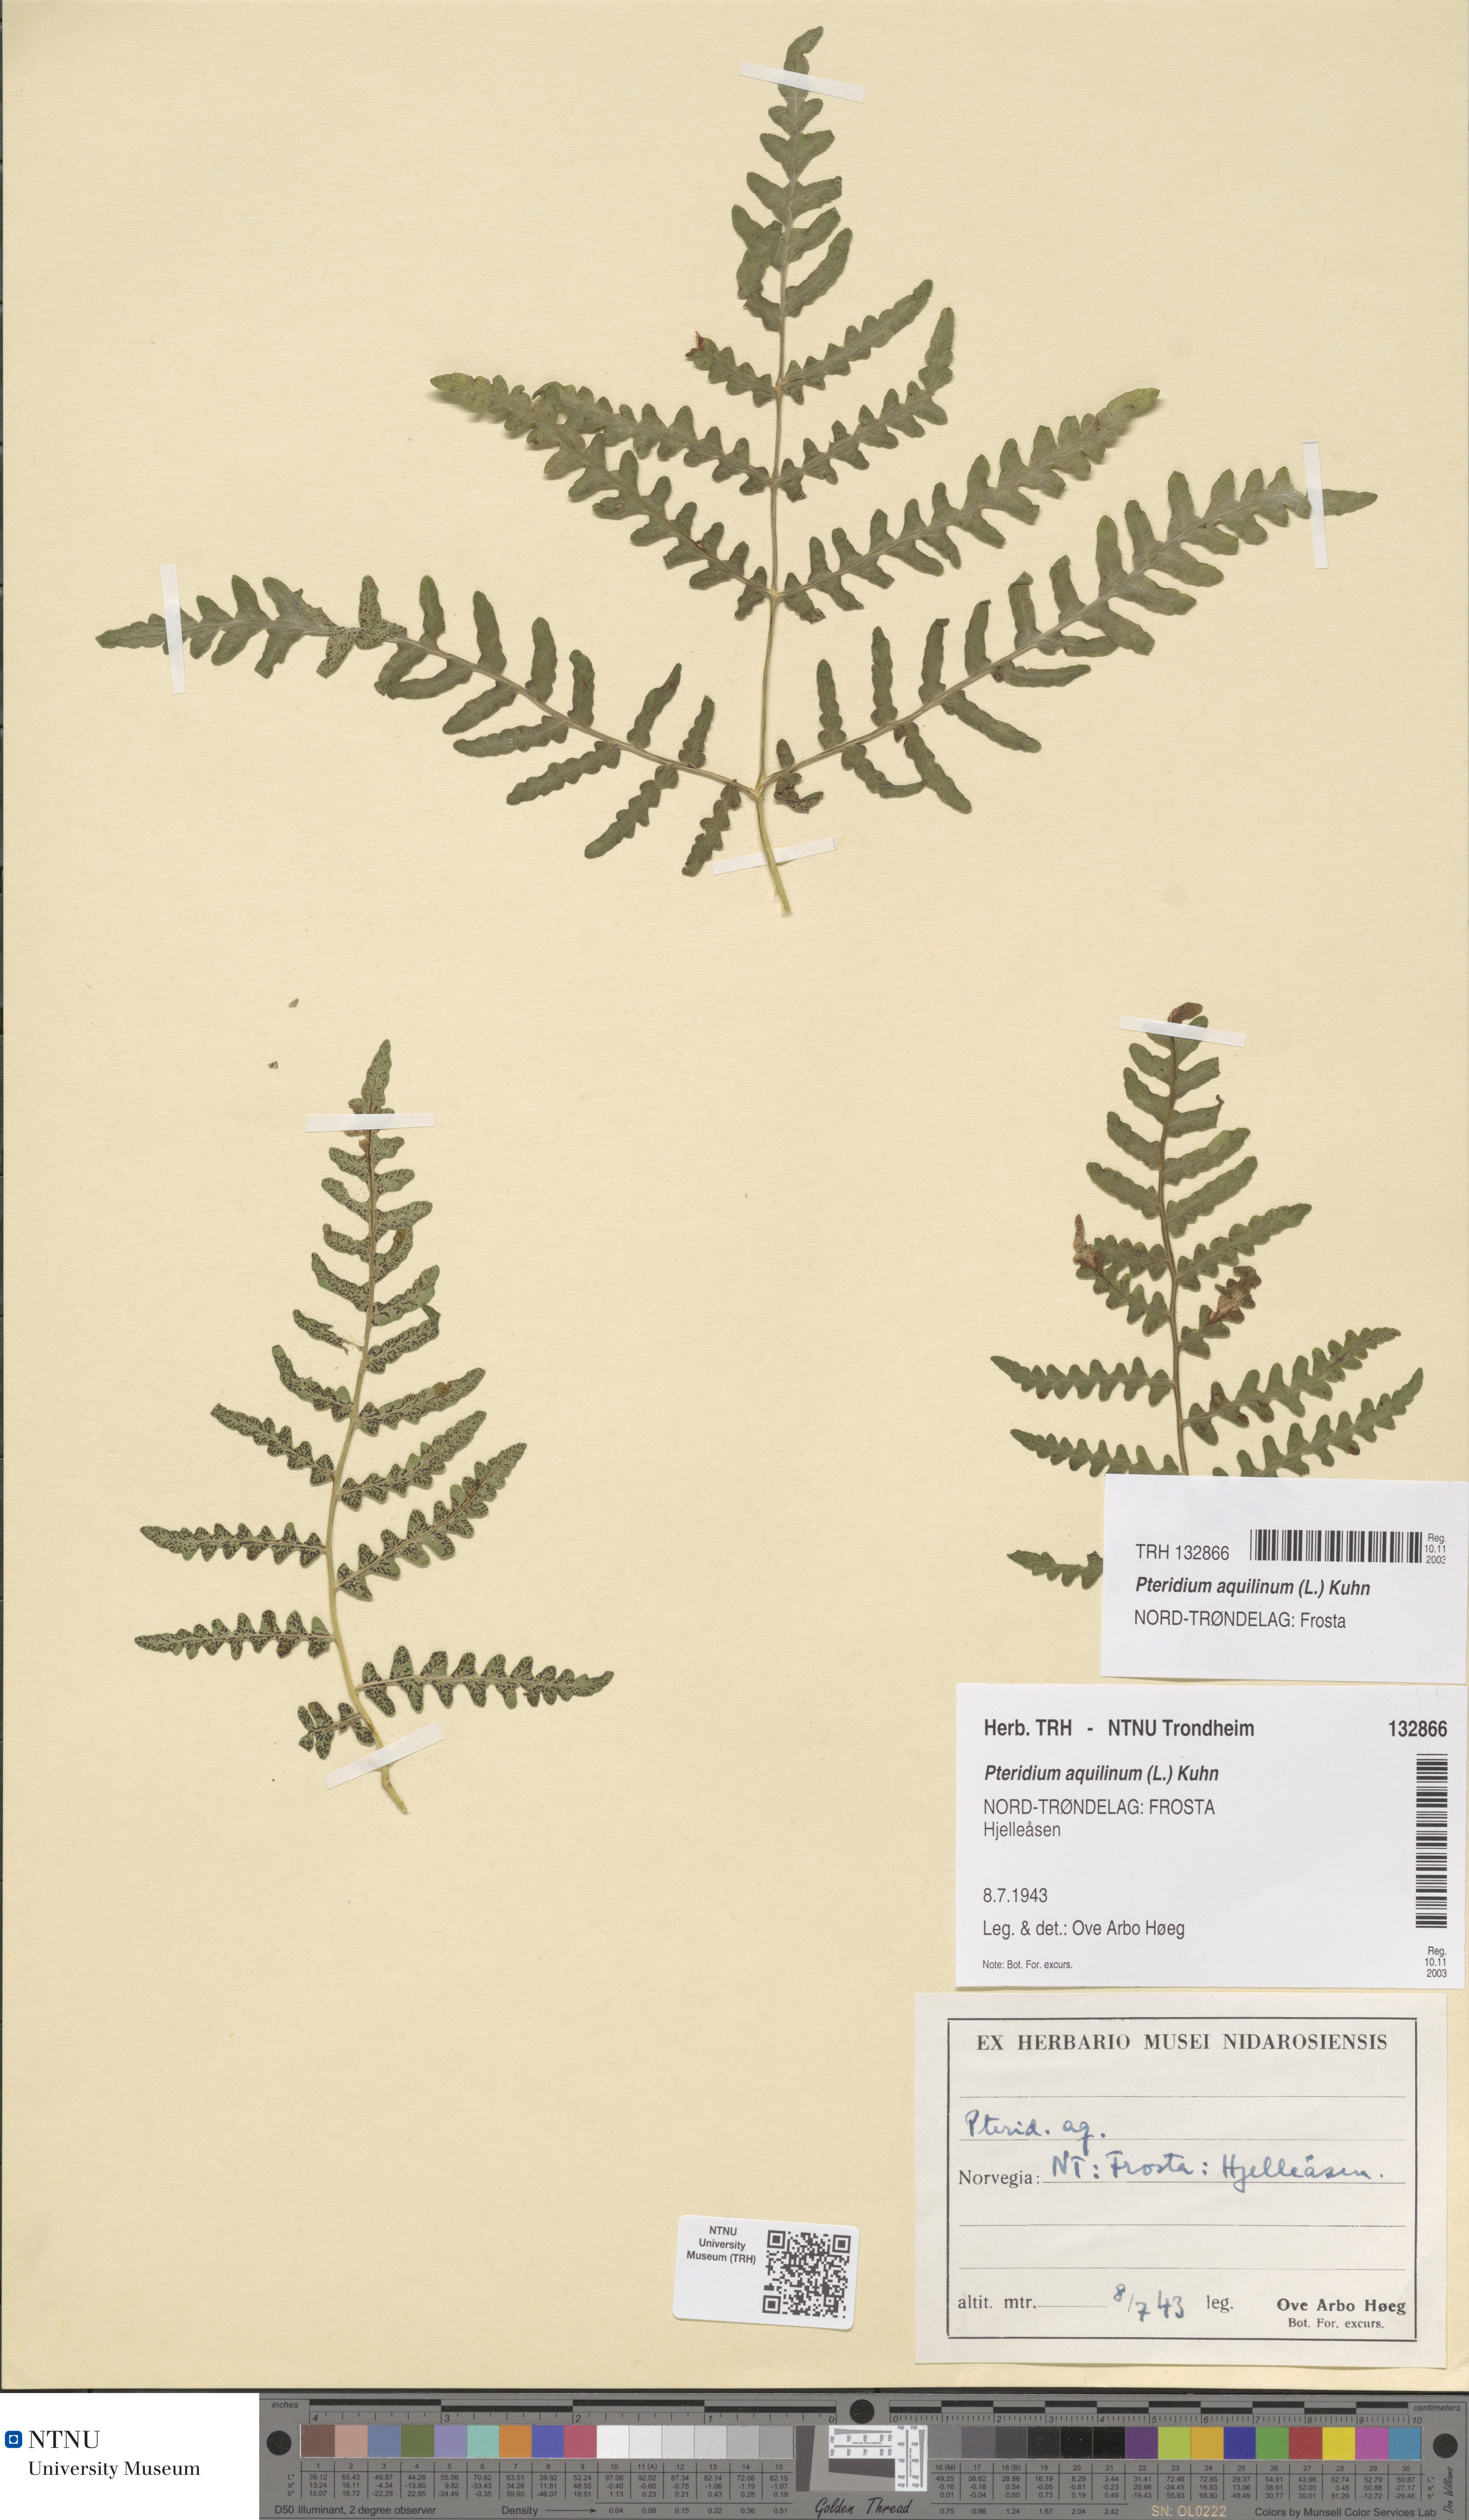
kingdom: Plantae
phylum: Tracheophyta
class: Polypodiopsida
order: Polypodiales
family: Dennstaedtiaceae
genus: Pteridium
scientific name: Pteridium aquilinum
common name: Bracken
